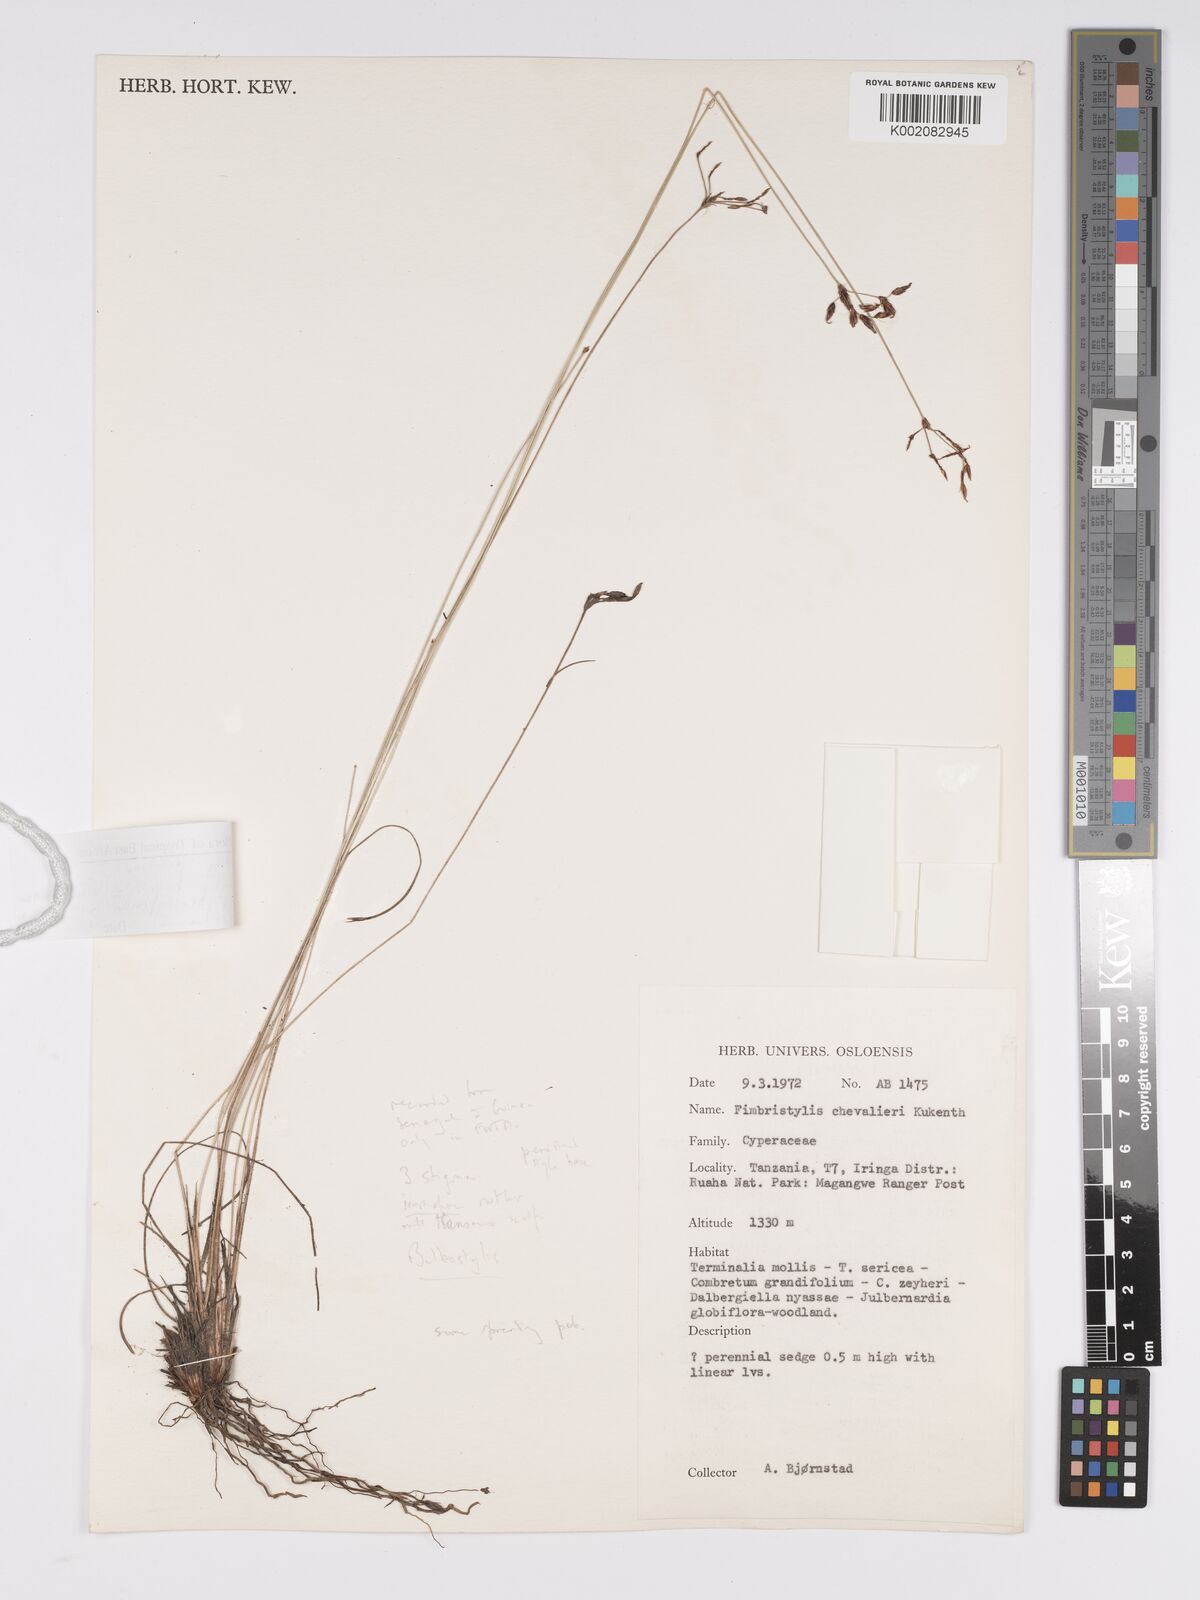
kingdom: Plantae
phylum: Tracheophyta
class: Liliopsida
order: Poales
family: Cyperaceae
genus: Bulbostylis
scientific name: Bulbostylis hispidula
